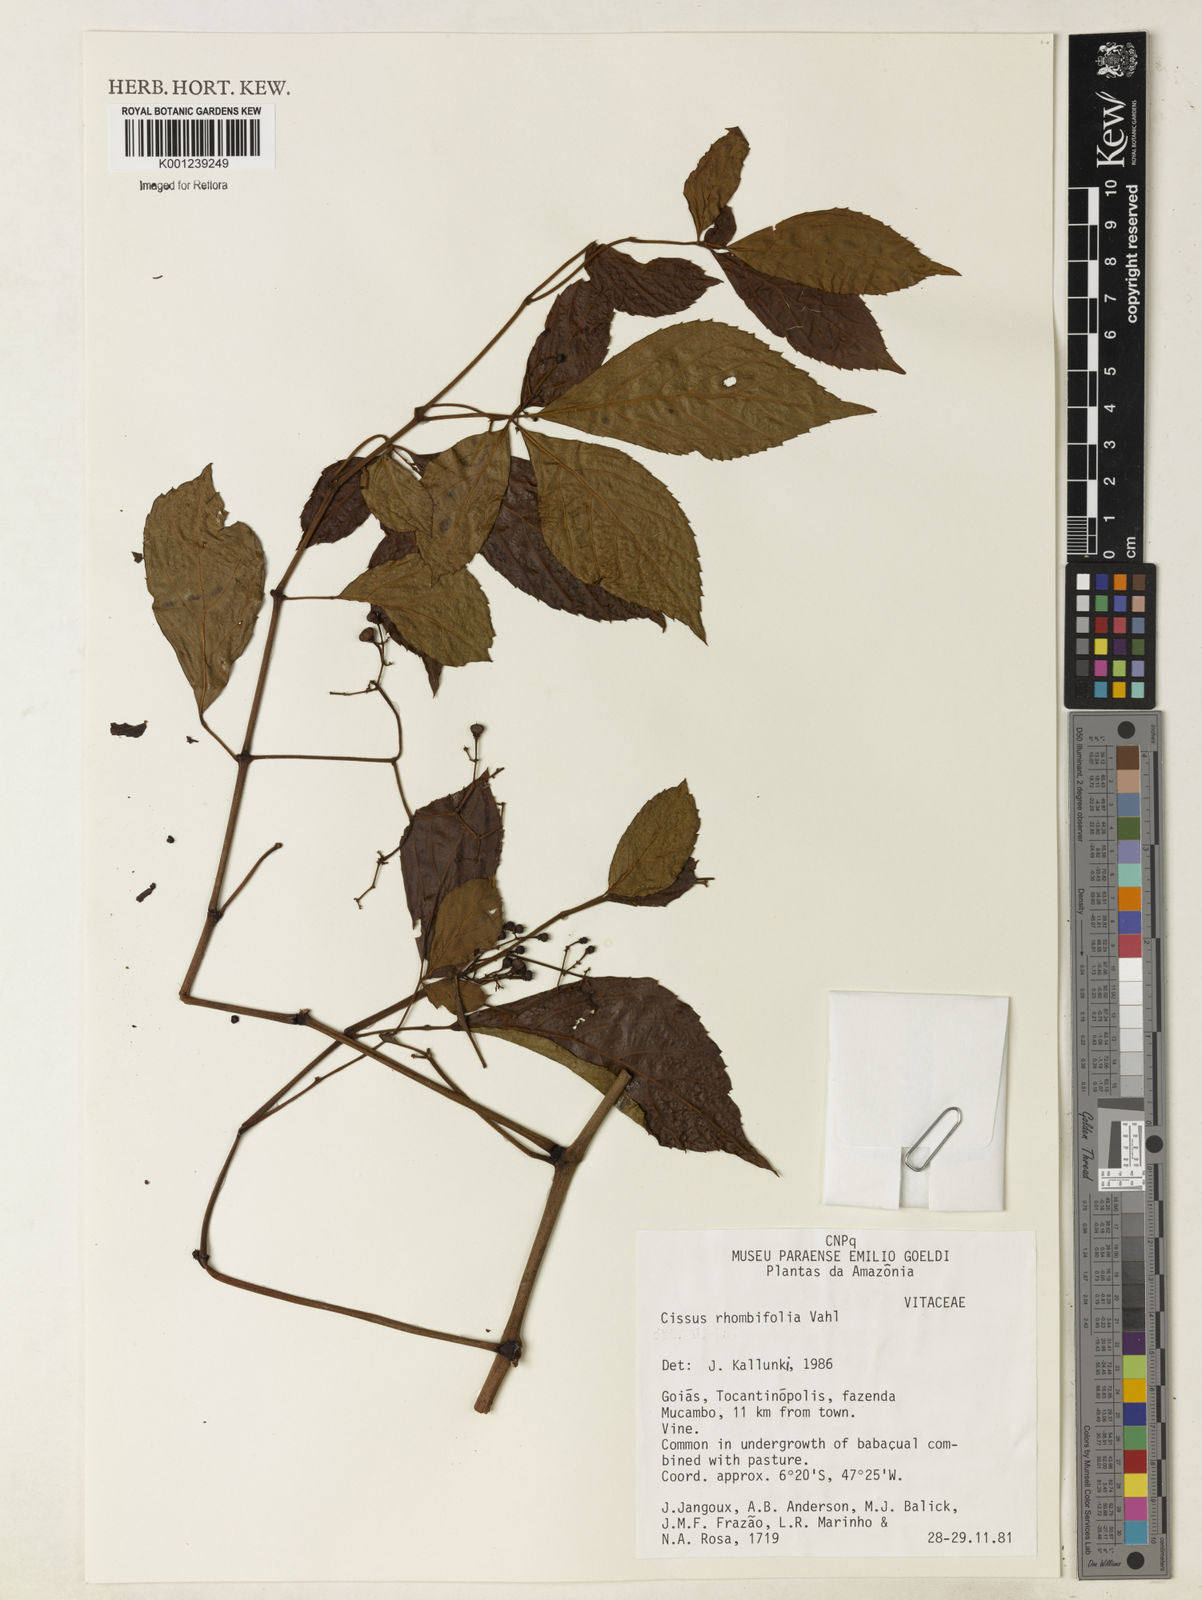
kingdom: Plantae
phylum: Tracheophyta
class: Magnoliopsida
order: Vitales
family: Vitaceae
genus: Cissus
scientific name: Cissus alata
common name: Venezuela treebind
